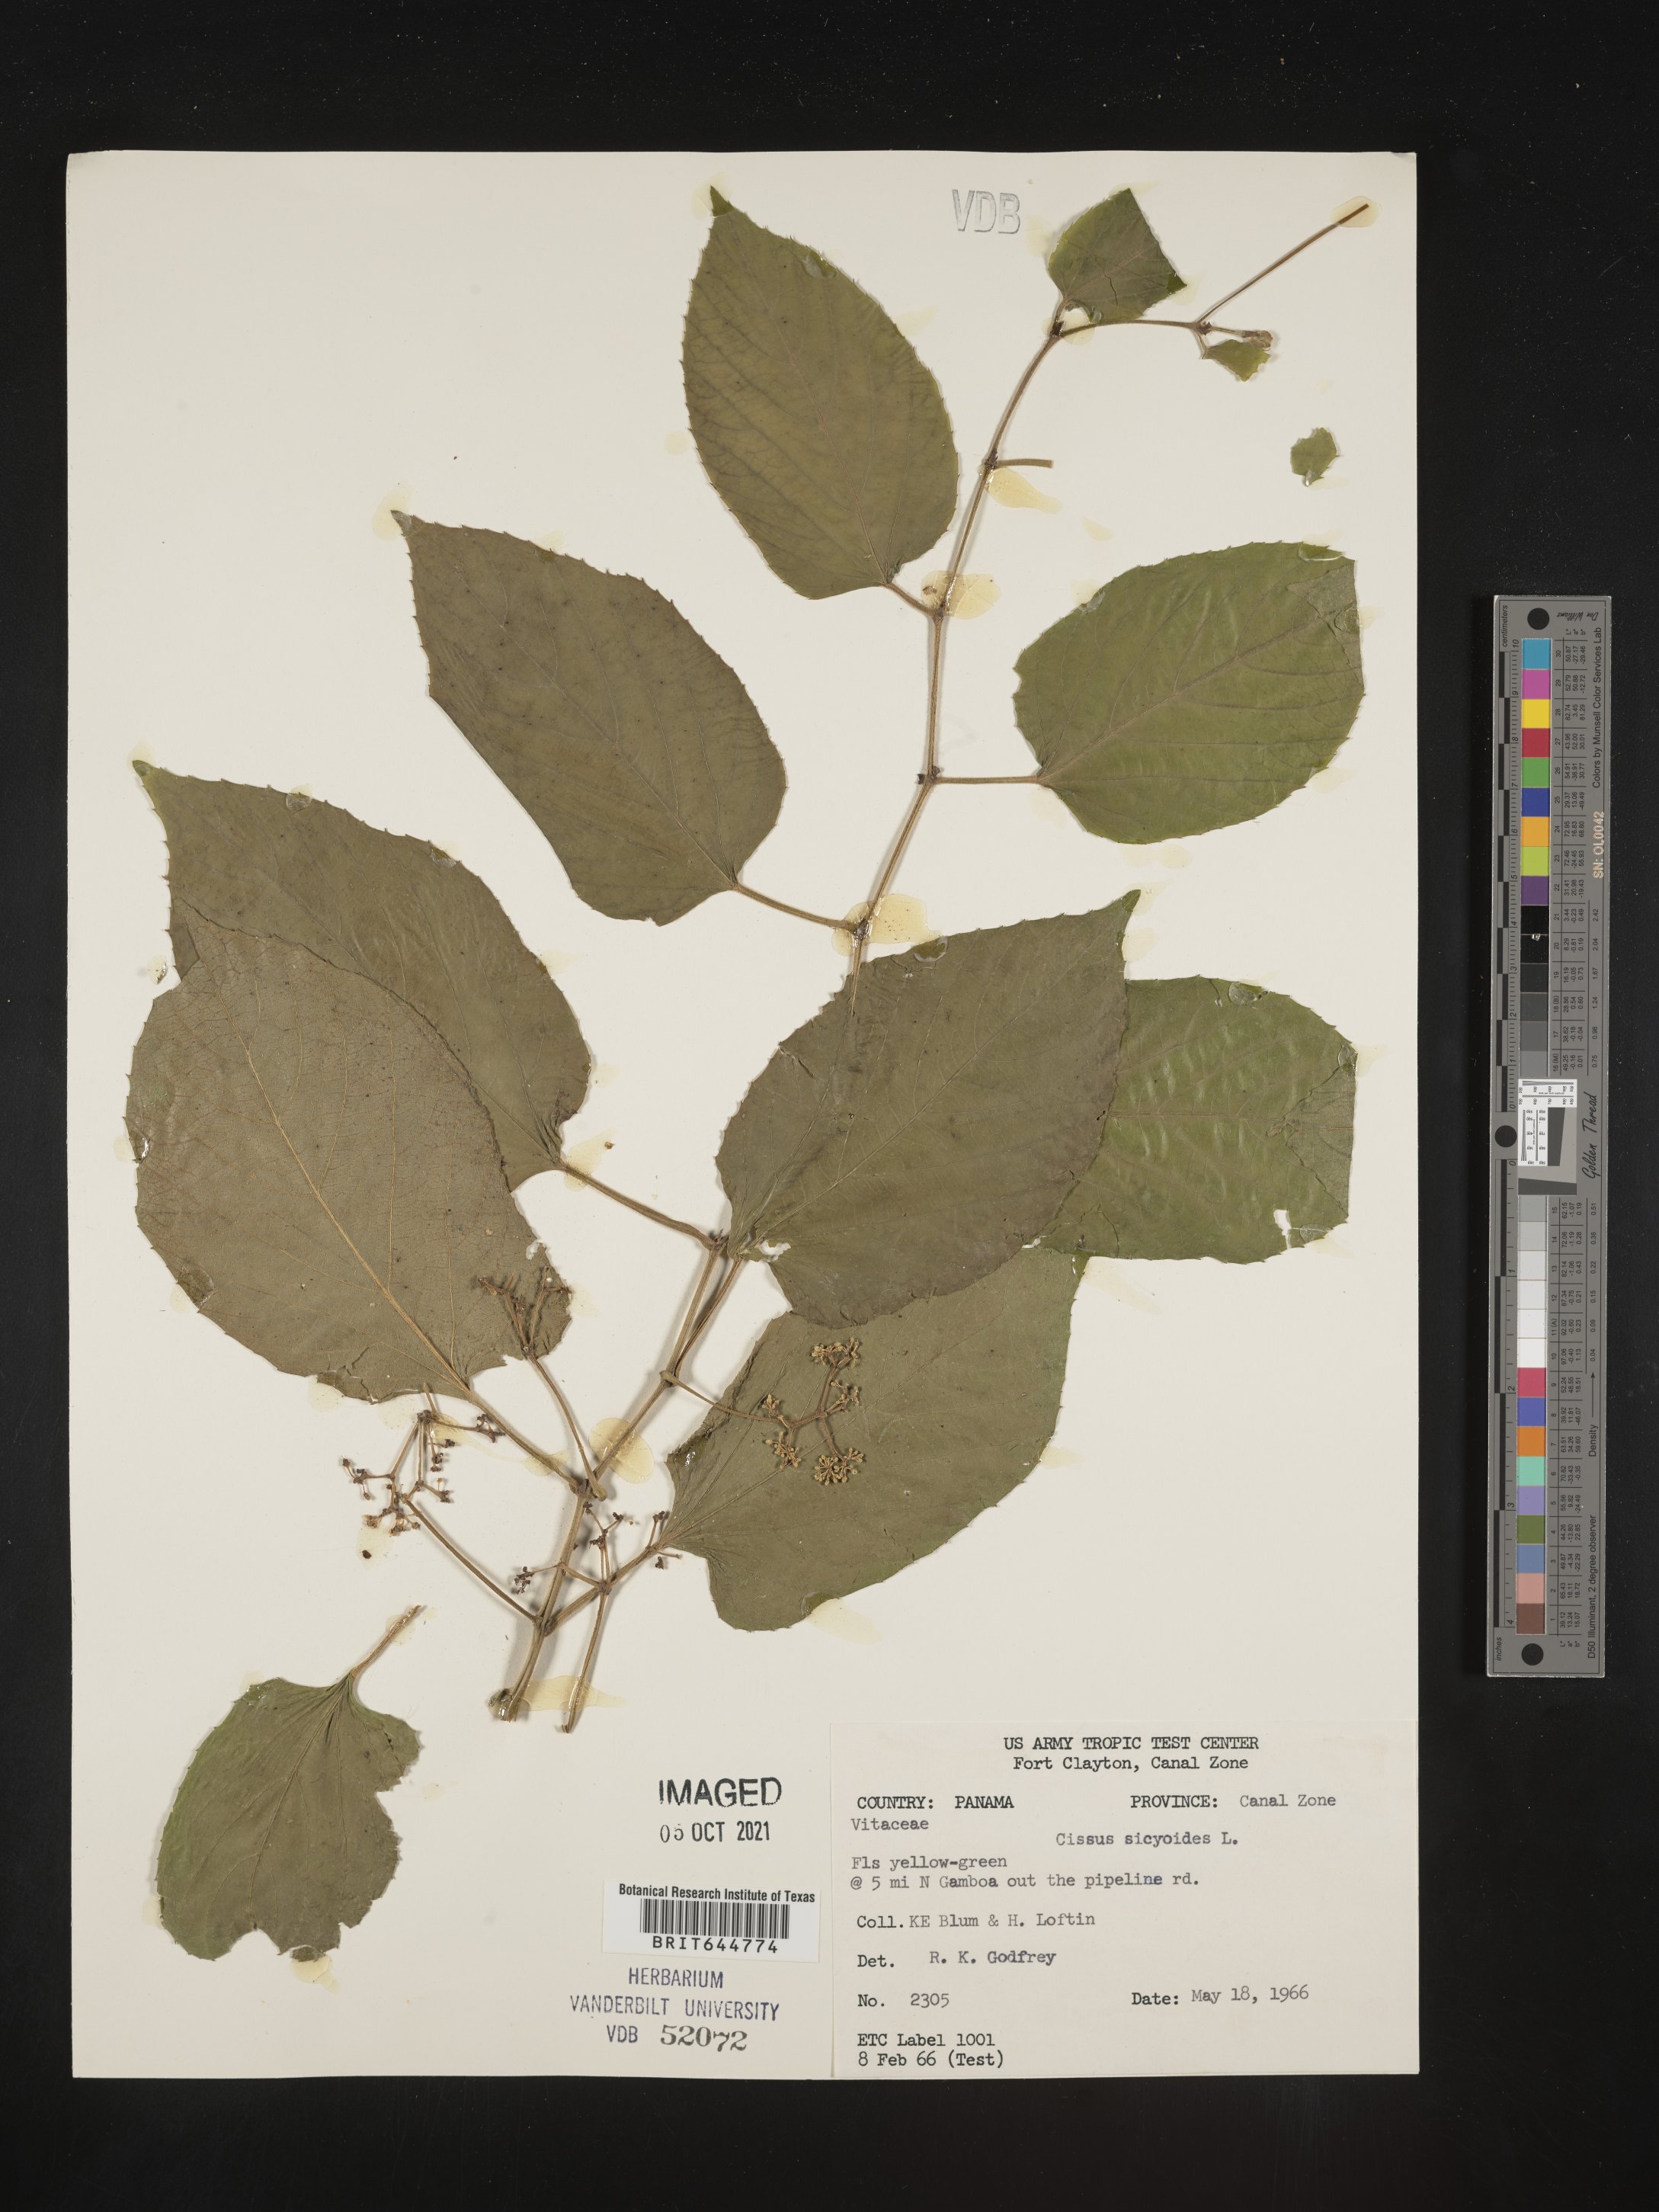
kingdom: Plantae
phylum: Tracheophyta
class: Magnoliopsida
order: Vitales
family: Vitaceae
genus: Cissus
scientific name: Cissus
